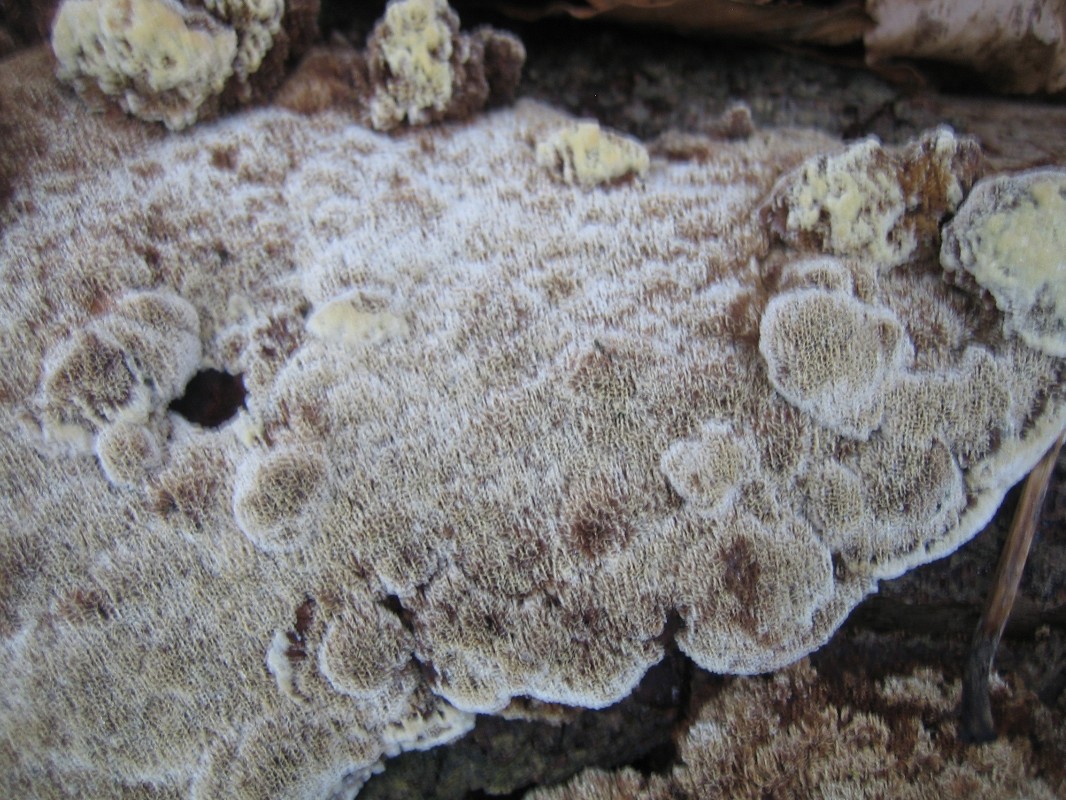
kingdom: Fungi
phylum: Basidiomycota
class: Agaricomycetes
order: Hymenochaetales
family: Hymenochaetaceae
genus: Mensularia
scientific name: Mensularia nodulosa
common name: bøge-spejlporesvamp
